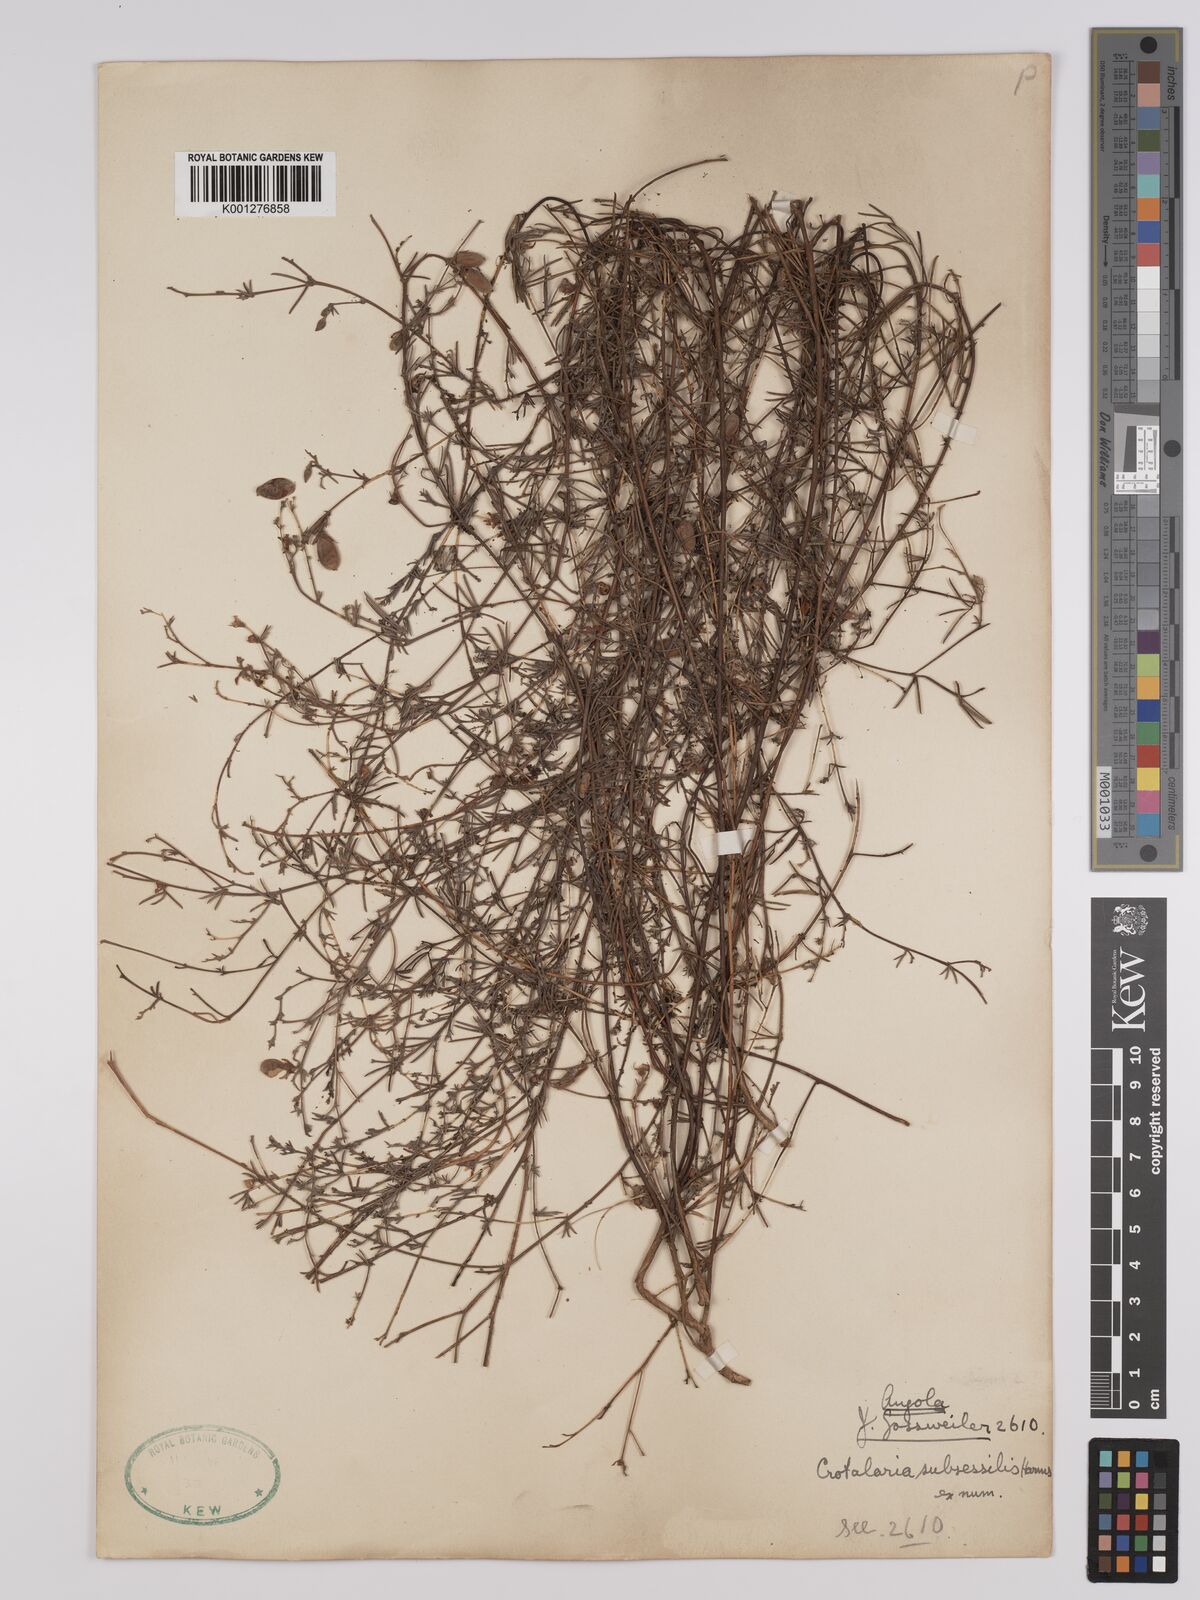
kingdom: Plantae
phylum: Tracheophyta
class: Magnoliopsida
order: Fabales
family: Fabaceae
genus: Crotalaria
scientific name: Crotalaria subsessilis
